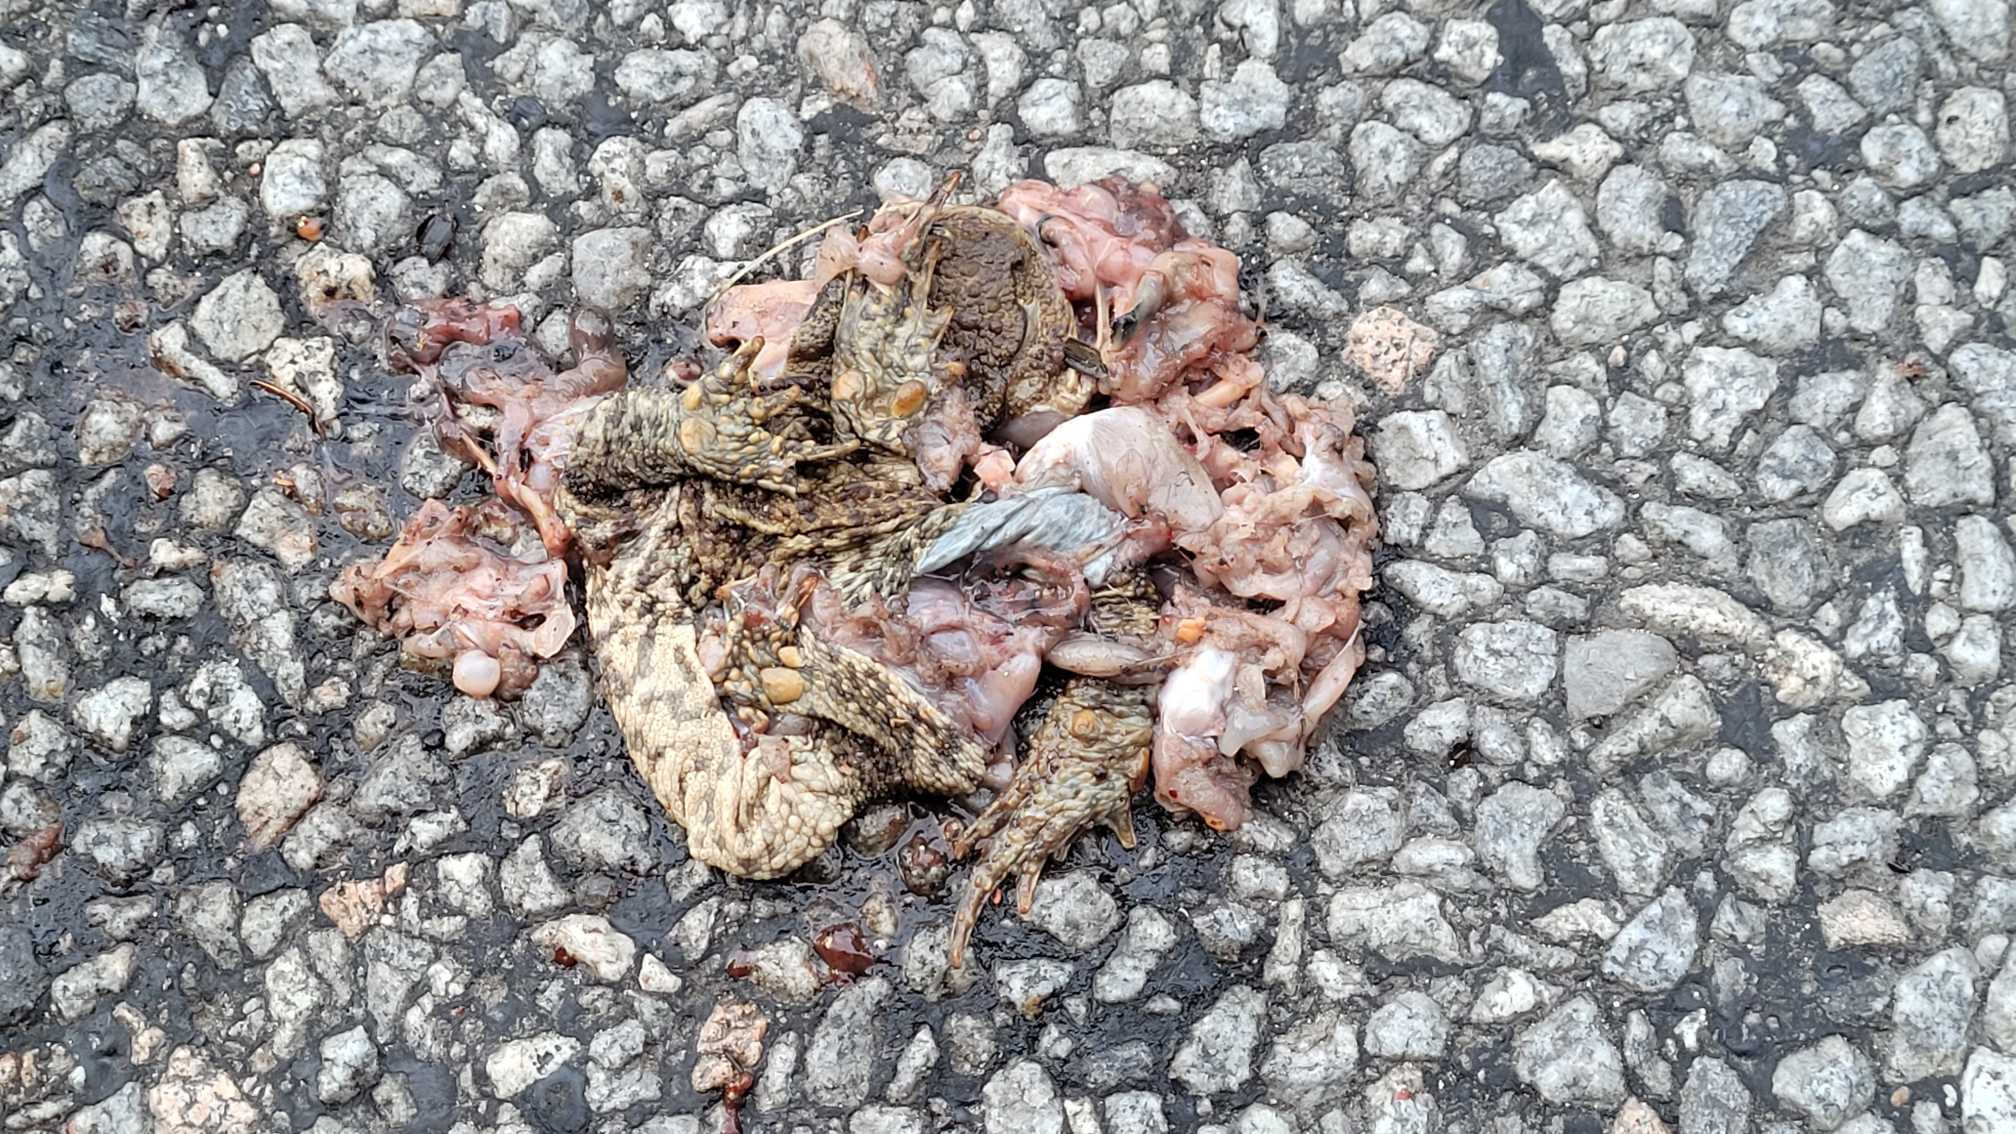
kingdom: Animalia
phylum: Chordata
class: Amphibia
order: Anura
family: Bufonidae
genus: Bufo
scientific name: Bufo bufo
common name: Skrubtudse
